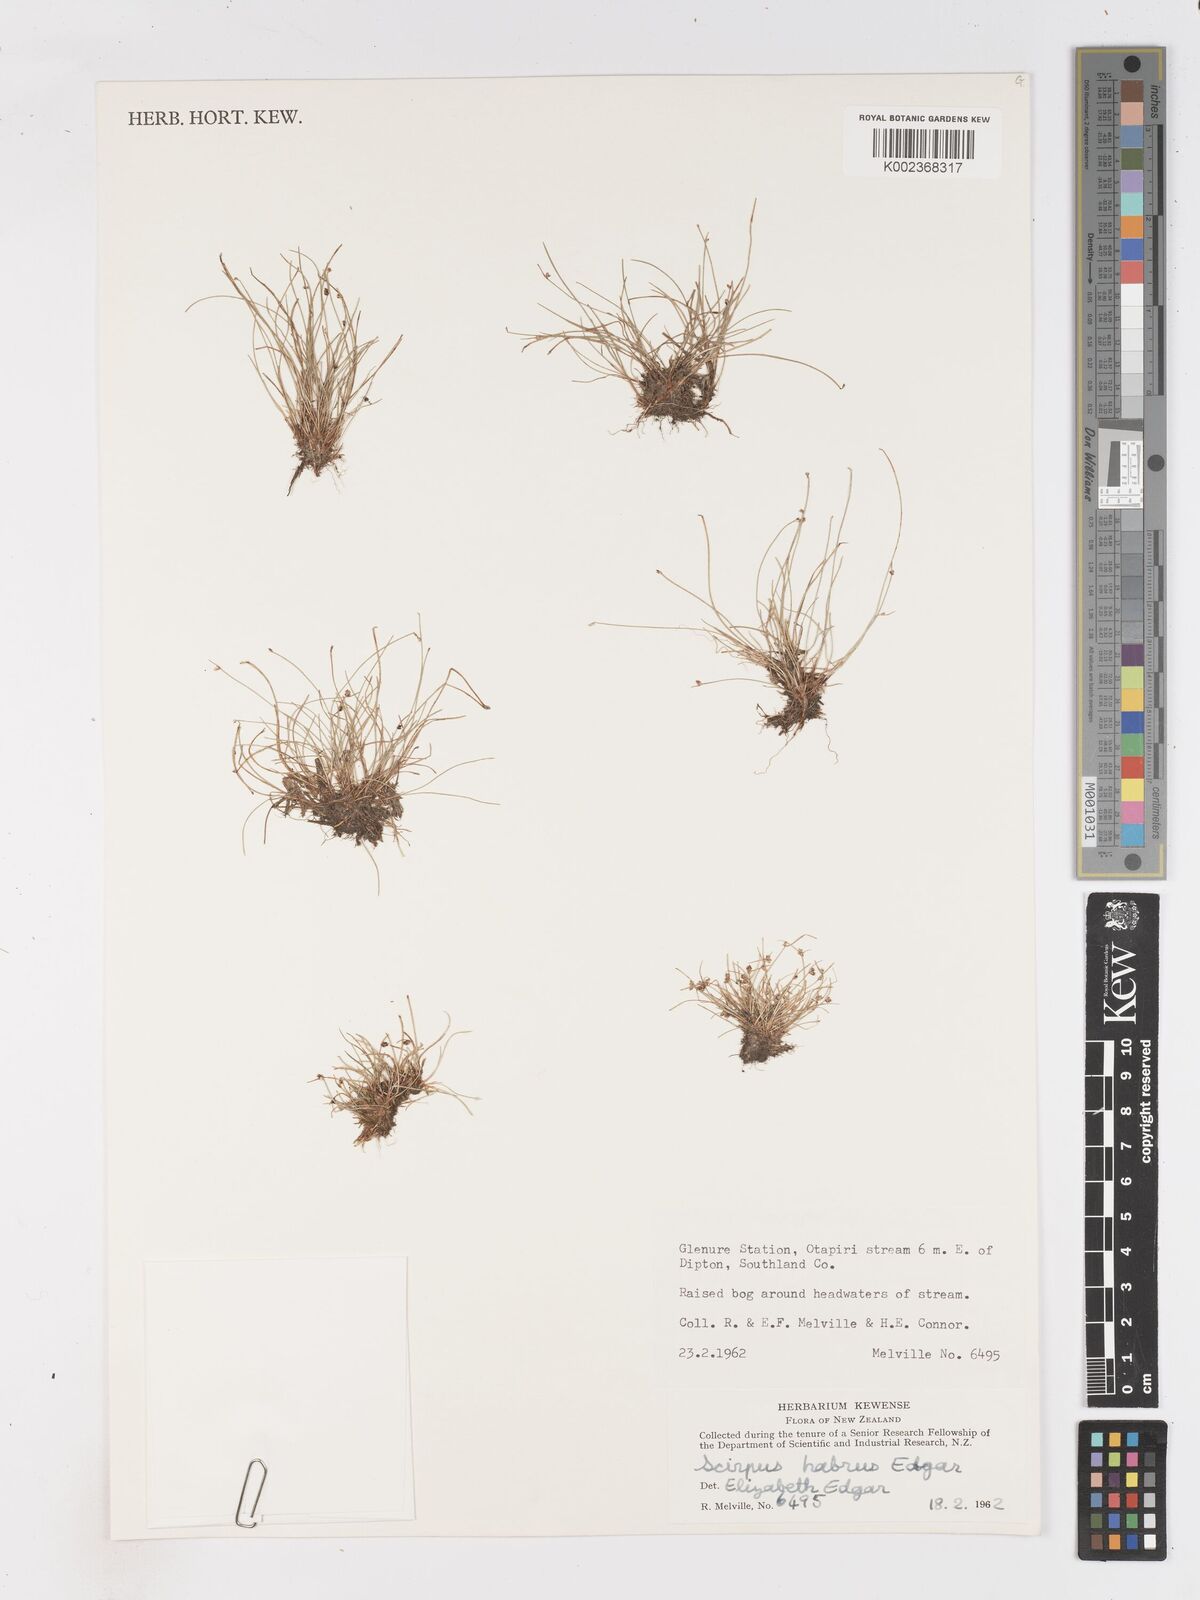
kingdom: Plantae
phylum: Tracheophyta
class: Liliopsida
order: Poales
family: Cyperaceae
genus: Isolepis
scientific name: Isolepis habra
